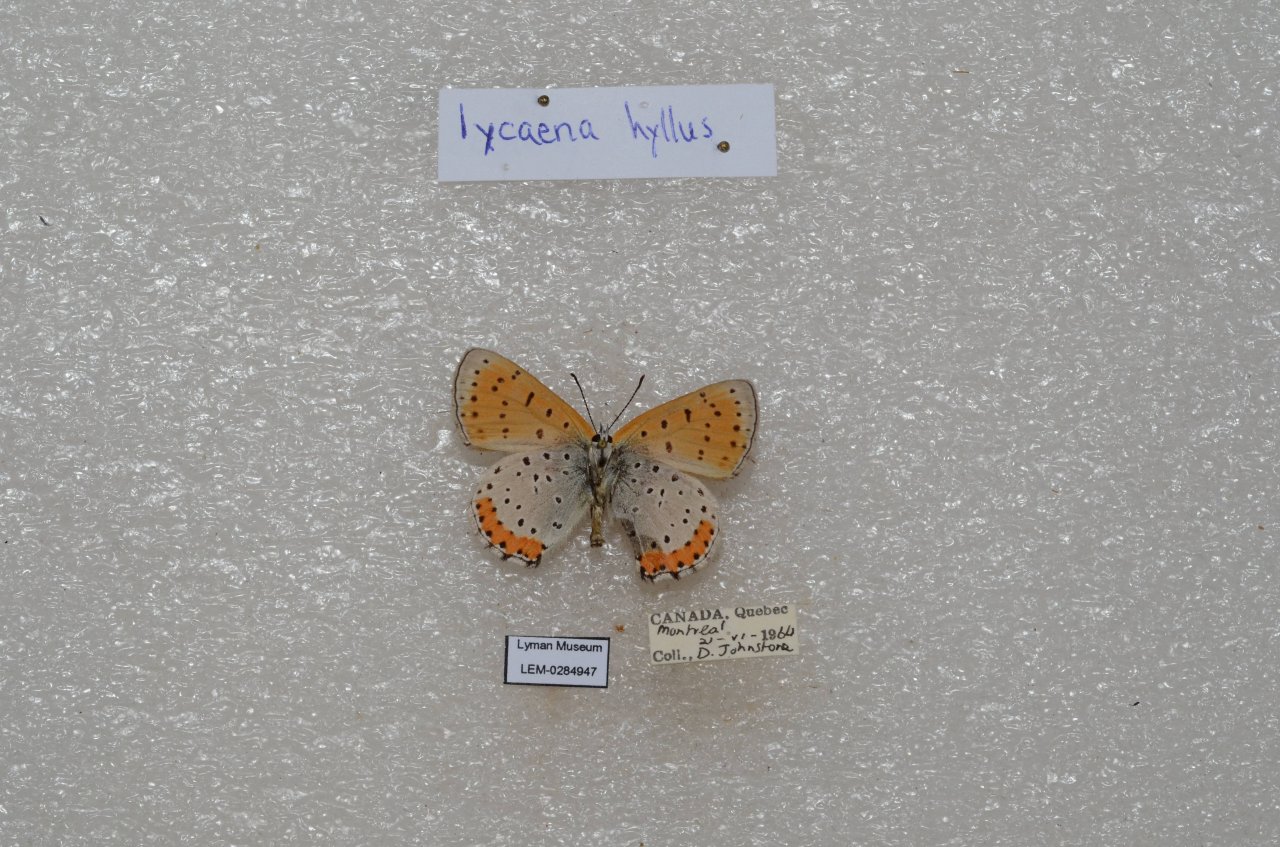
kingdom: Animalia
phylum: Arthropoda
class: Insecta
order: Lepidoptera
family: Sesiidae
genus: Sesia
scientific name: Sesia Lycaena hyllus
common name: Bronze Copper
